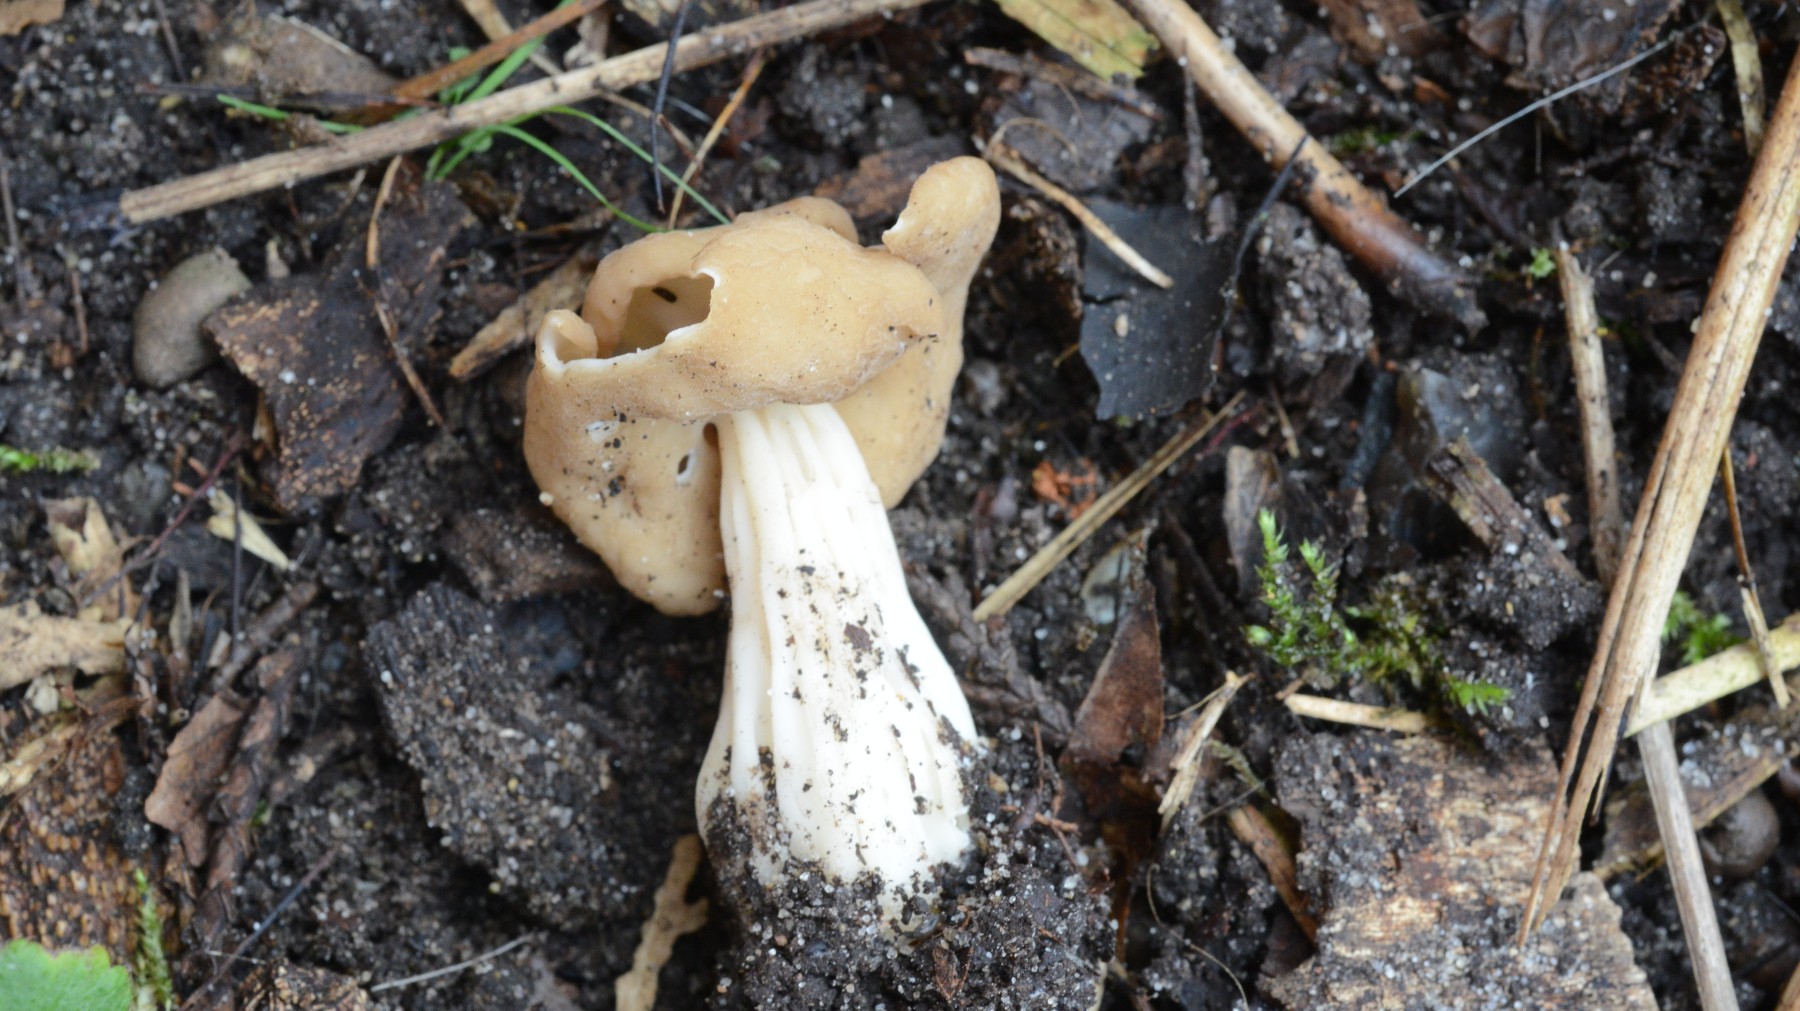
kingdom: Fungi
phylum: Ascomycota
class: Pezizomycetes
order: Pezizales
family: Helvellaceae
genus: Helvella
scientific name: Helvella crispa
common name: kruset foldhat
